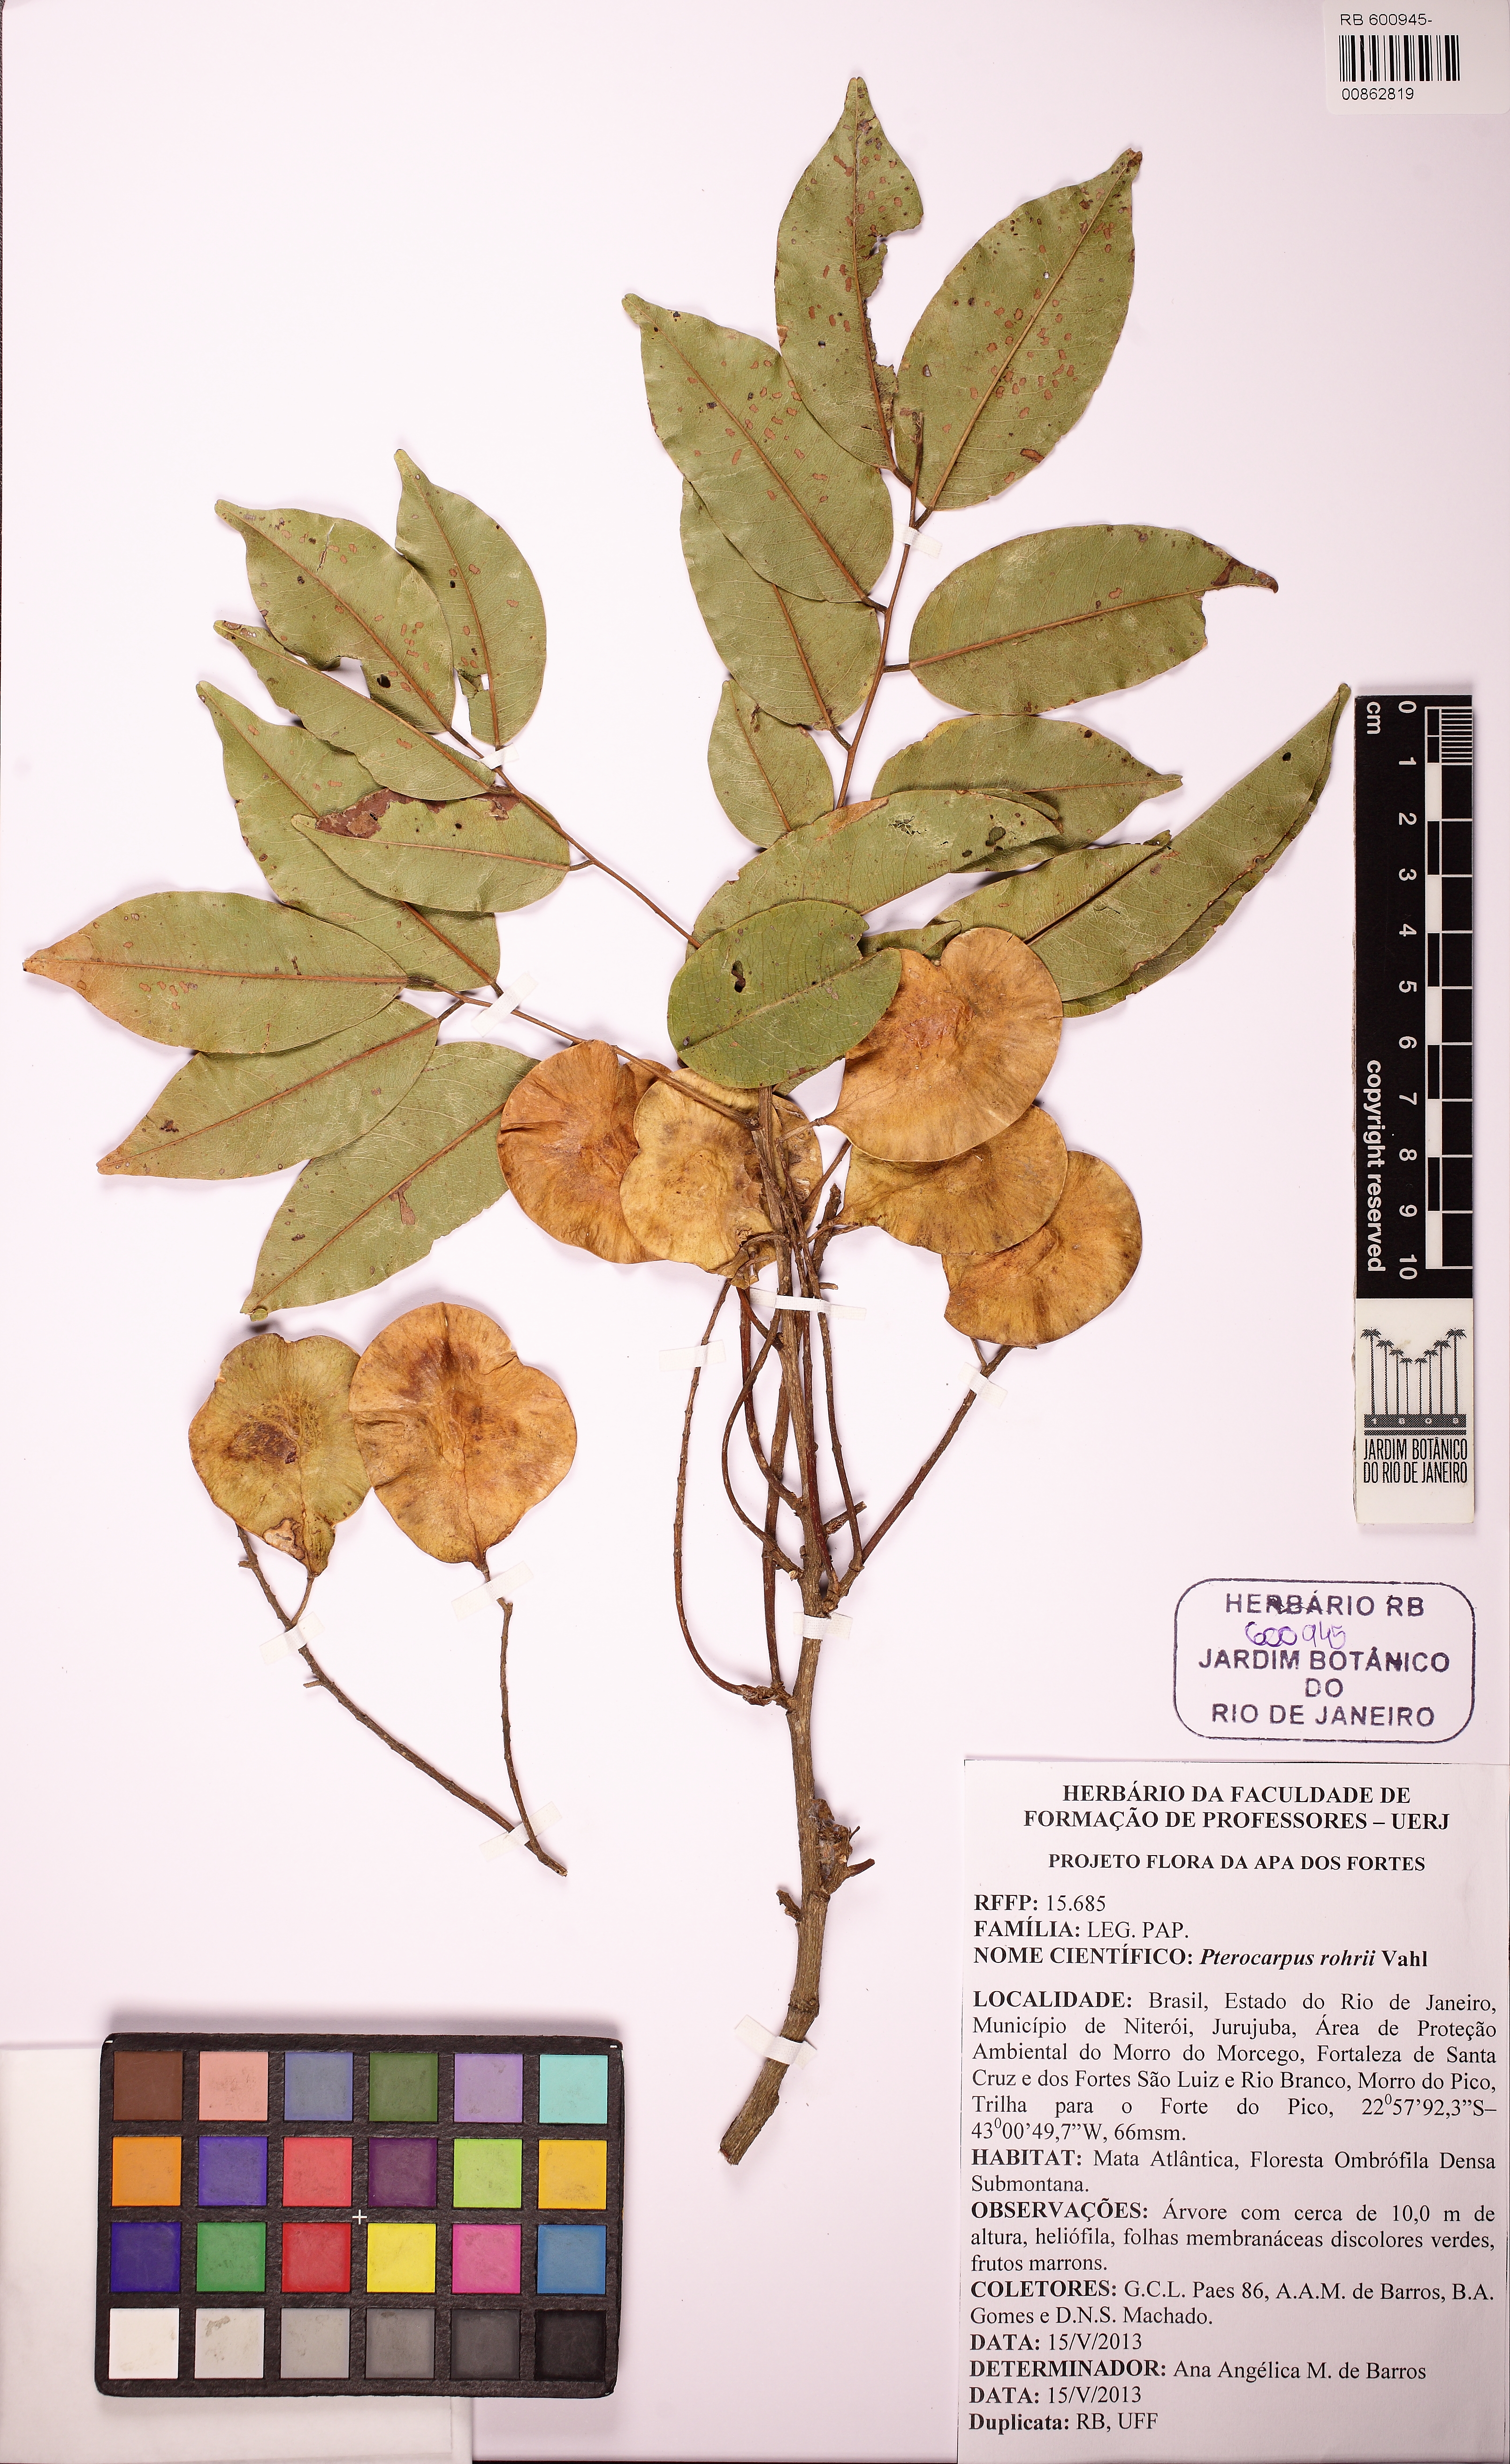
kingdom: Plantae
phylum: Tracheophyta
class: Magnoliopsida
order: Fabales
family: Fabaceae
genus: Pterocarpus
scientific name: Pterocarpus rohrii
